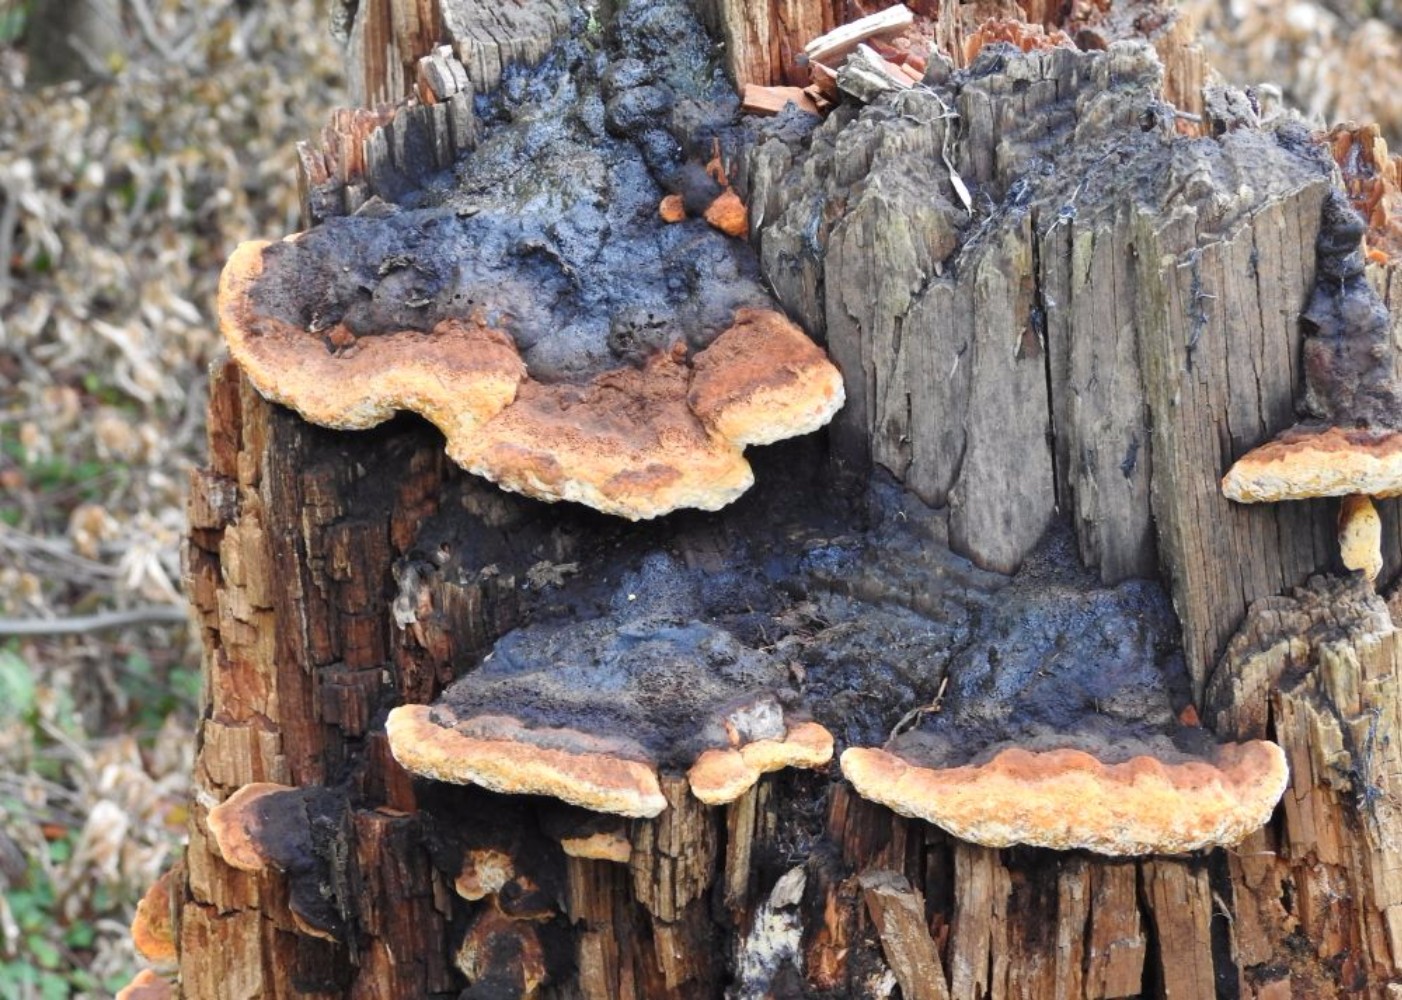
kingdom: Fungi
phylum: Basidiomycota
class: Agaricomycetes
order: Gloeophyllales
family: Gloeophyllaceae
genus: Gloeophyllum
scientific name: Gloeophyllum odoratum
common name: duftende korkhat
